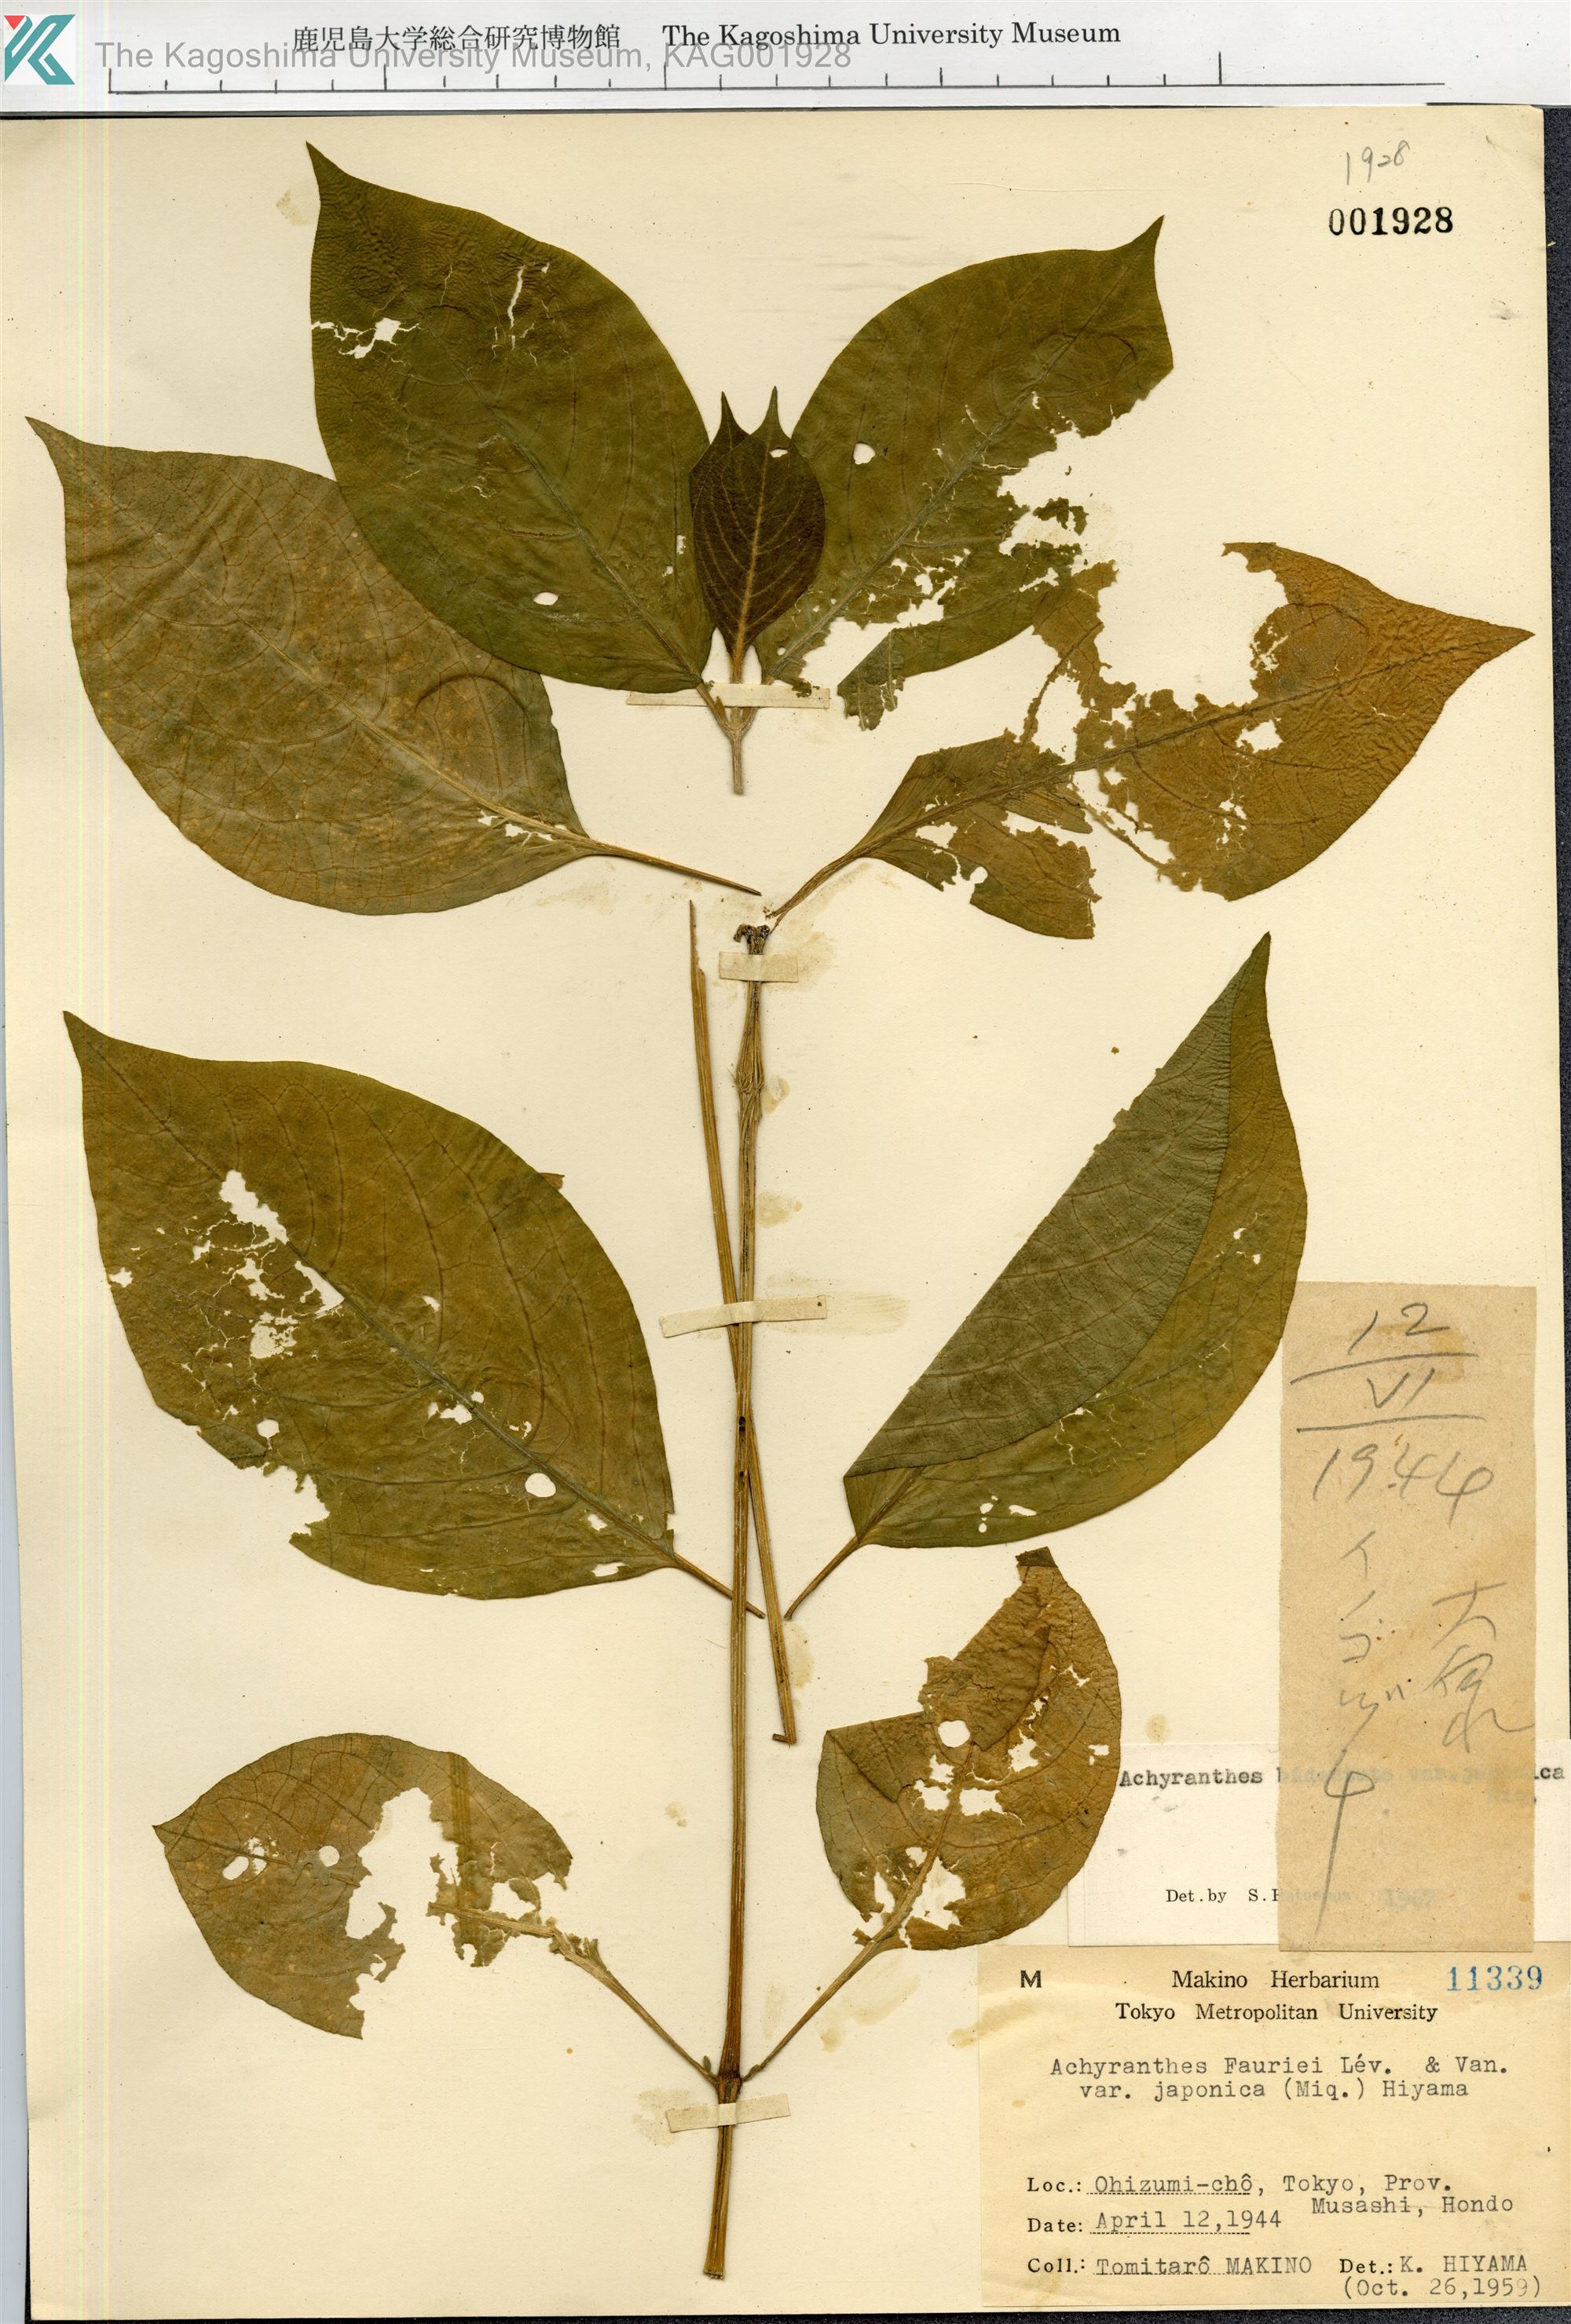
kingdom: Plantae
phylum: Tracheophyta
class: Magnoliopsida
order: Caryophyllales
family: Amaranthaceae
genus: Achyranthes
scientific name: Achyranthes bidentata
